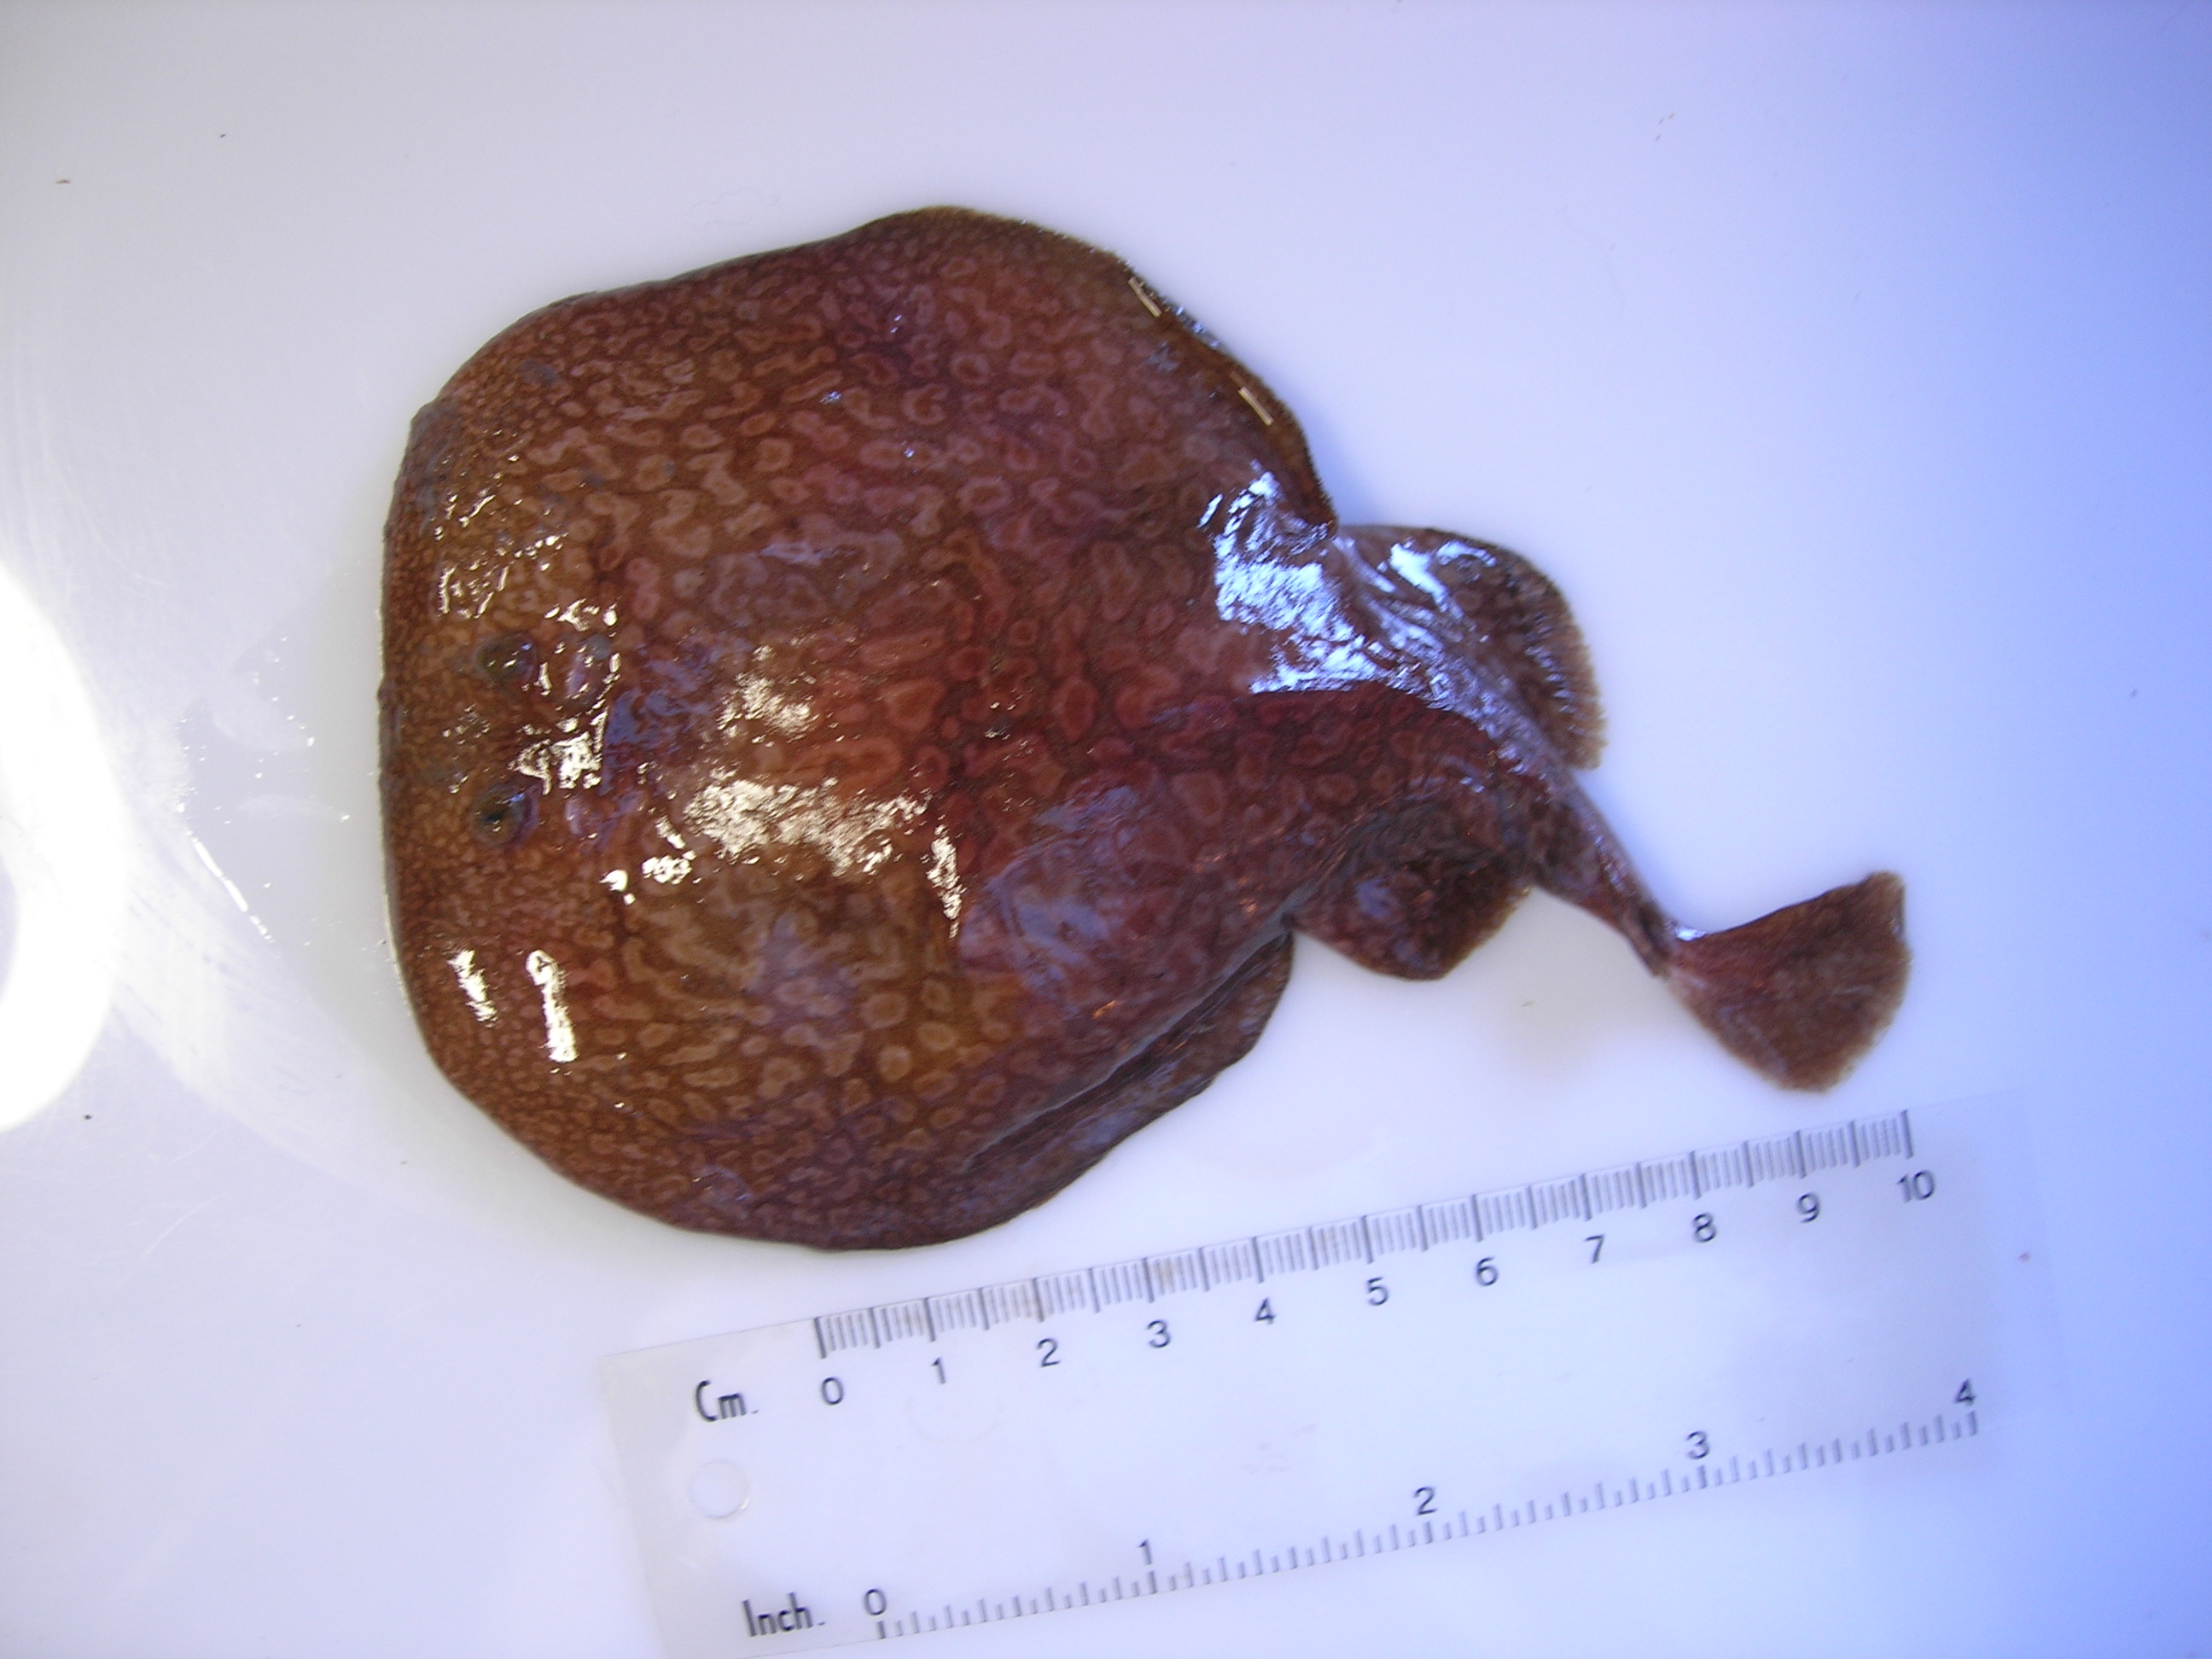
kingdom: Animalia
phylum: Chordata
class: Elasmobranchii
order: Torpediniformes
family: Torpedinidae
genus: Torpedo
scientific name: Torpedo sinuspersici
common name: Marbled electric ray
